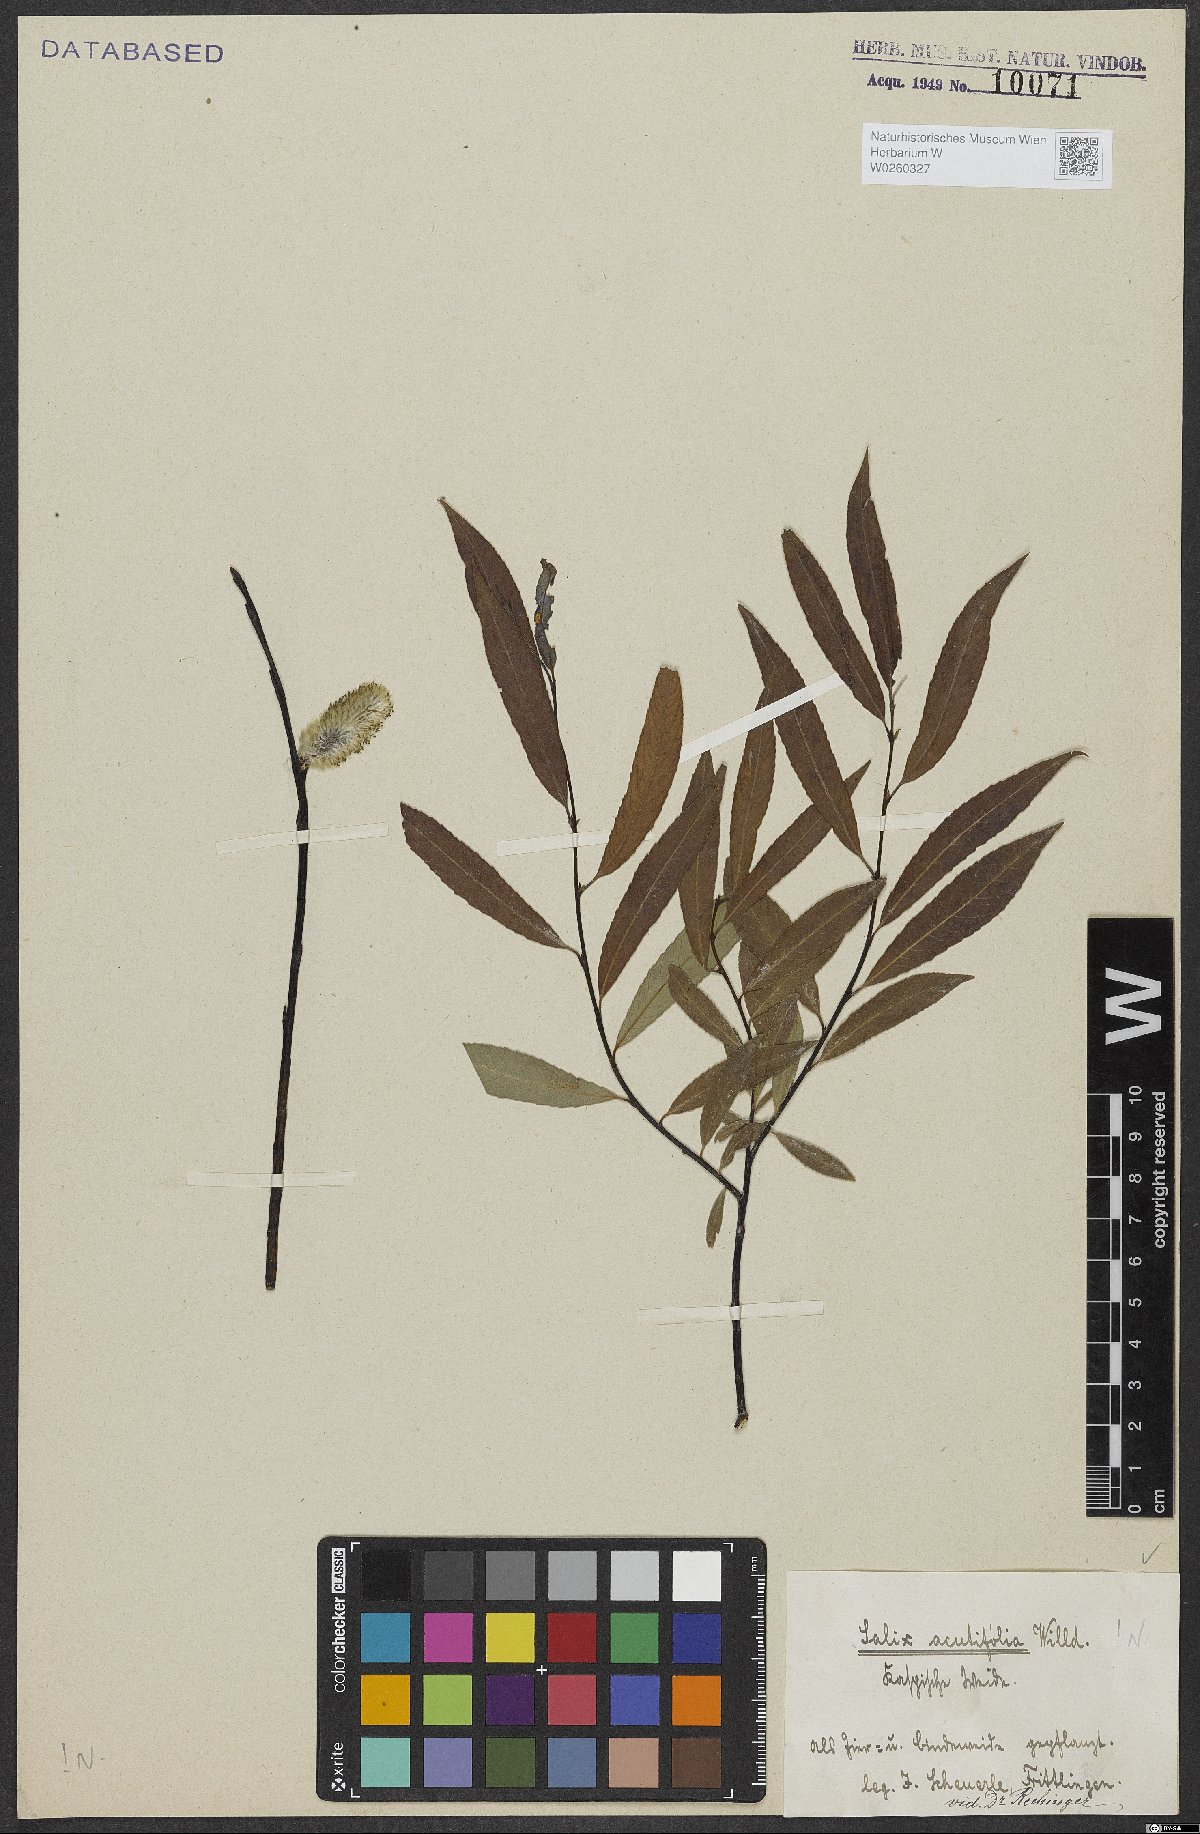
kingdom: Plantae
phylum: Tracheophyta
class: Magnoliopsida
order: Malpighiales
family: Salicaceae
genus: Salix
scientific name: Salix acutifolia
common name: Siberian violet-willow
